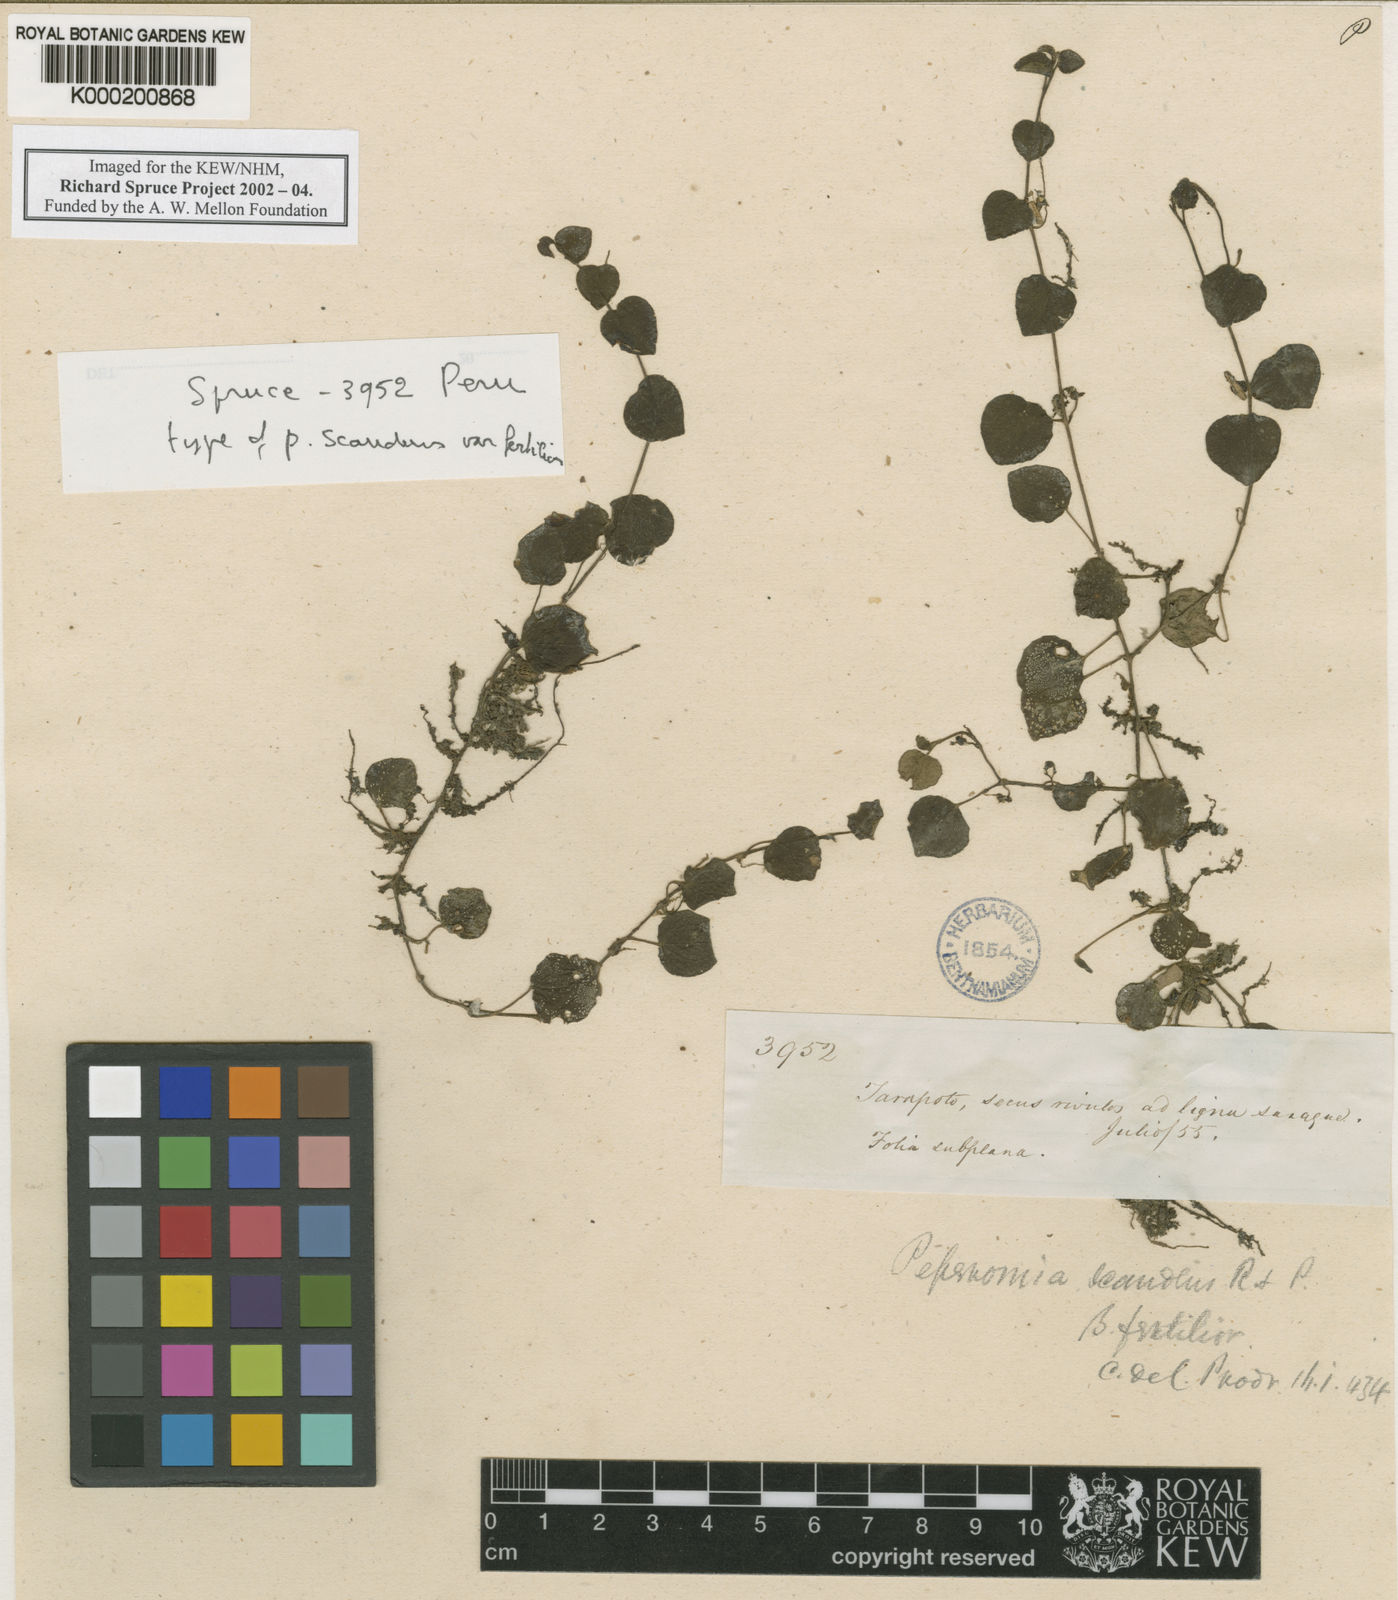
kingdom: Plantae
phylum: Tracheophyta
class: Magnoliopsida
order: Piperales
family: Piperaceae
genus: Peperomia
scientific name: Peperomia serpens
